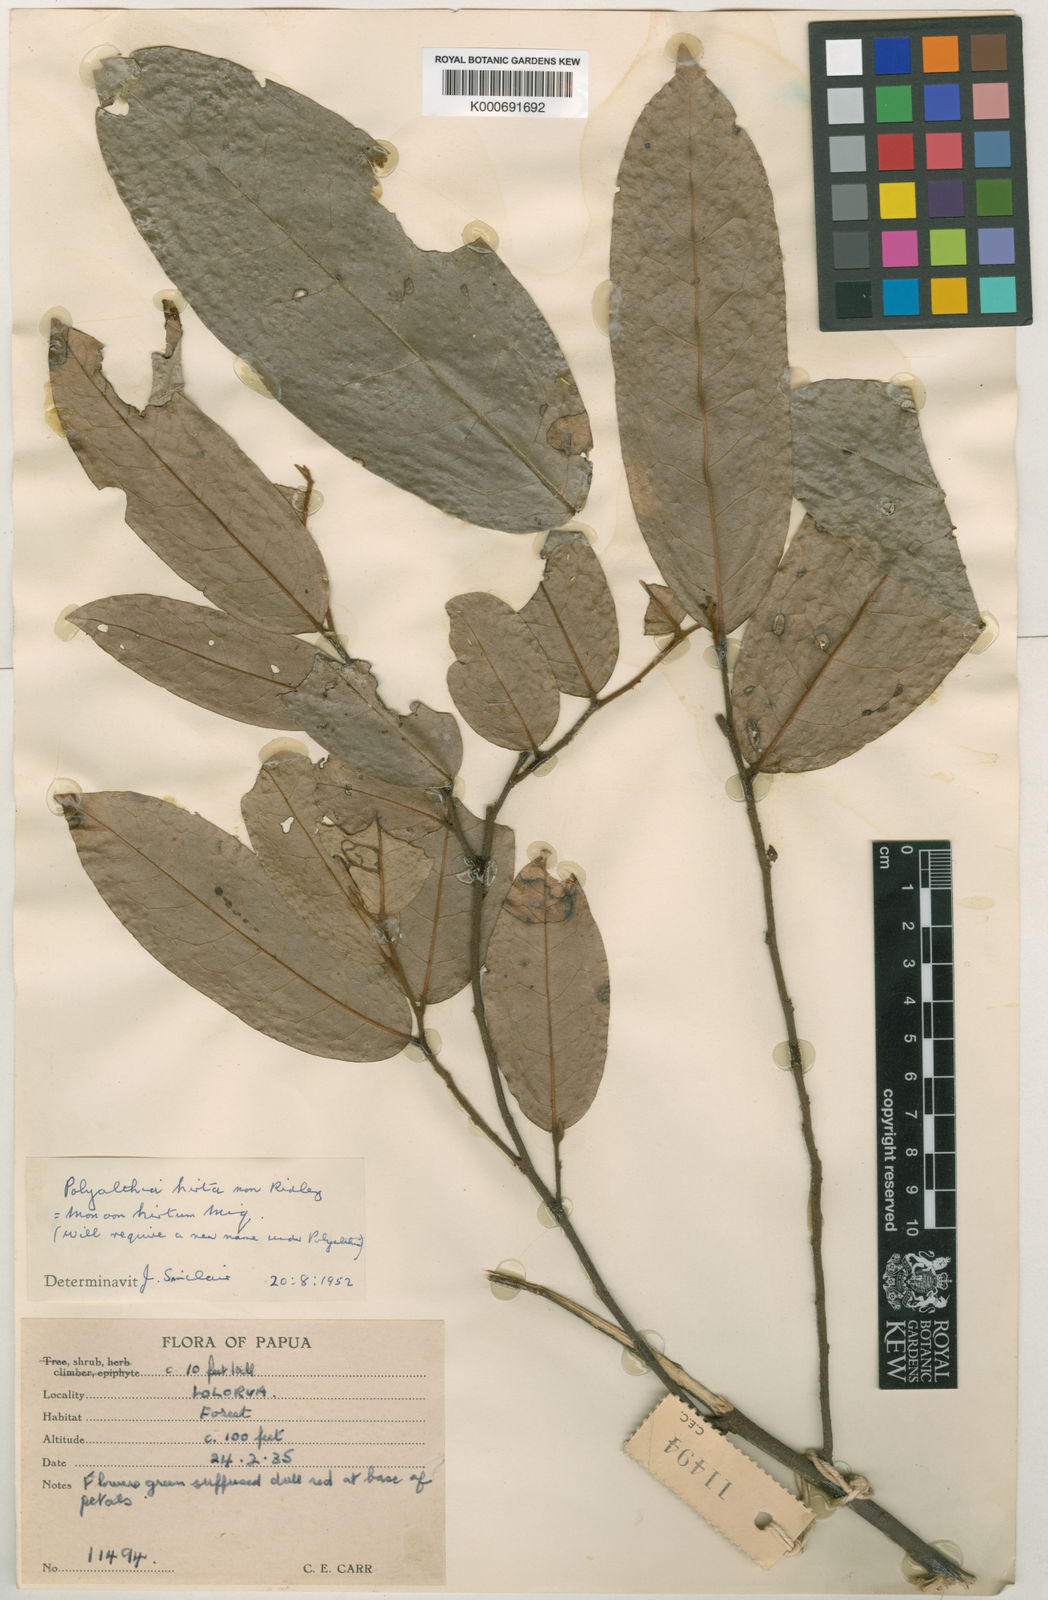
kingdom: Plantae
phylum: Tracheophyta
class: Magnoliopsida
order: Magnoliales
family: Annonaceae
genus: Hubera
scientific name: Hubera hirta
